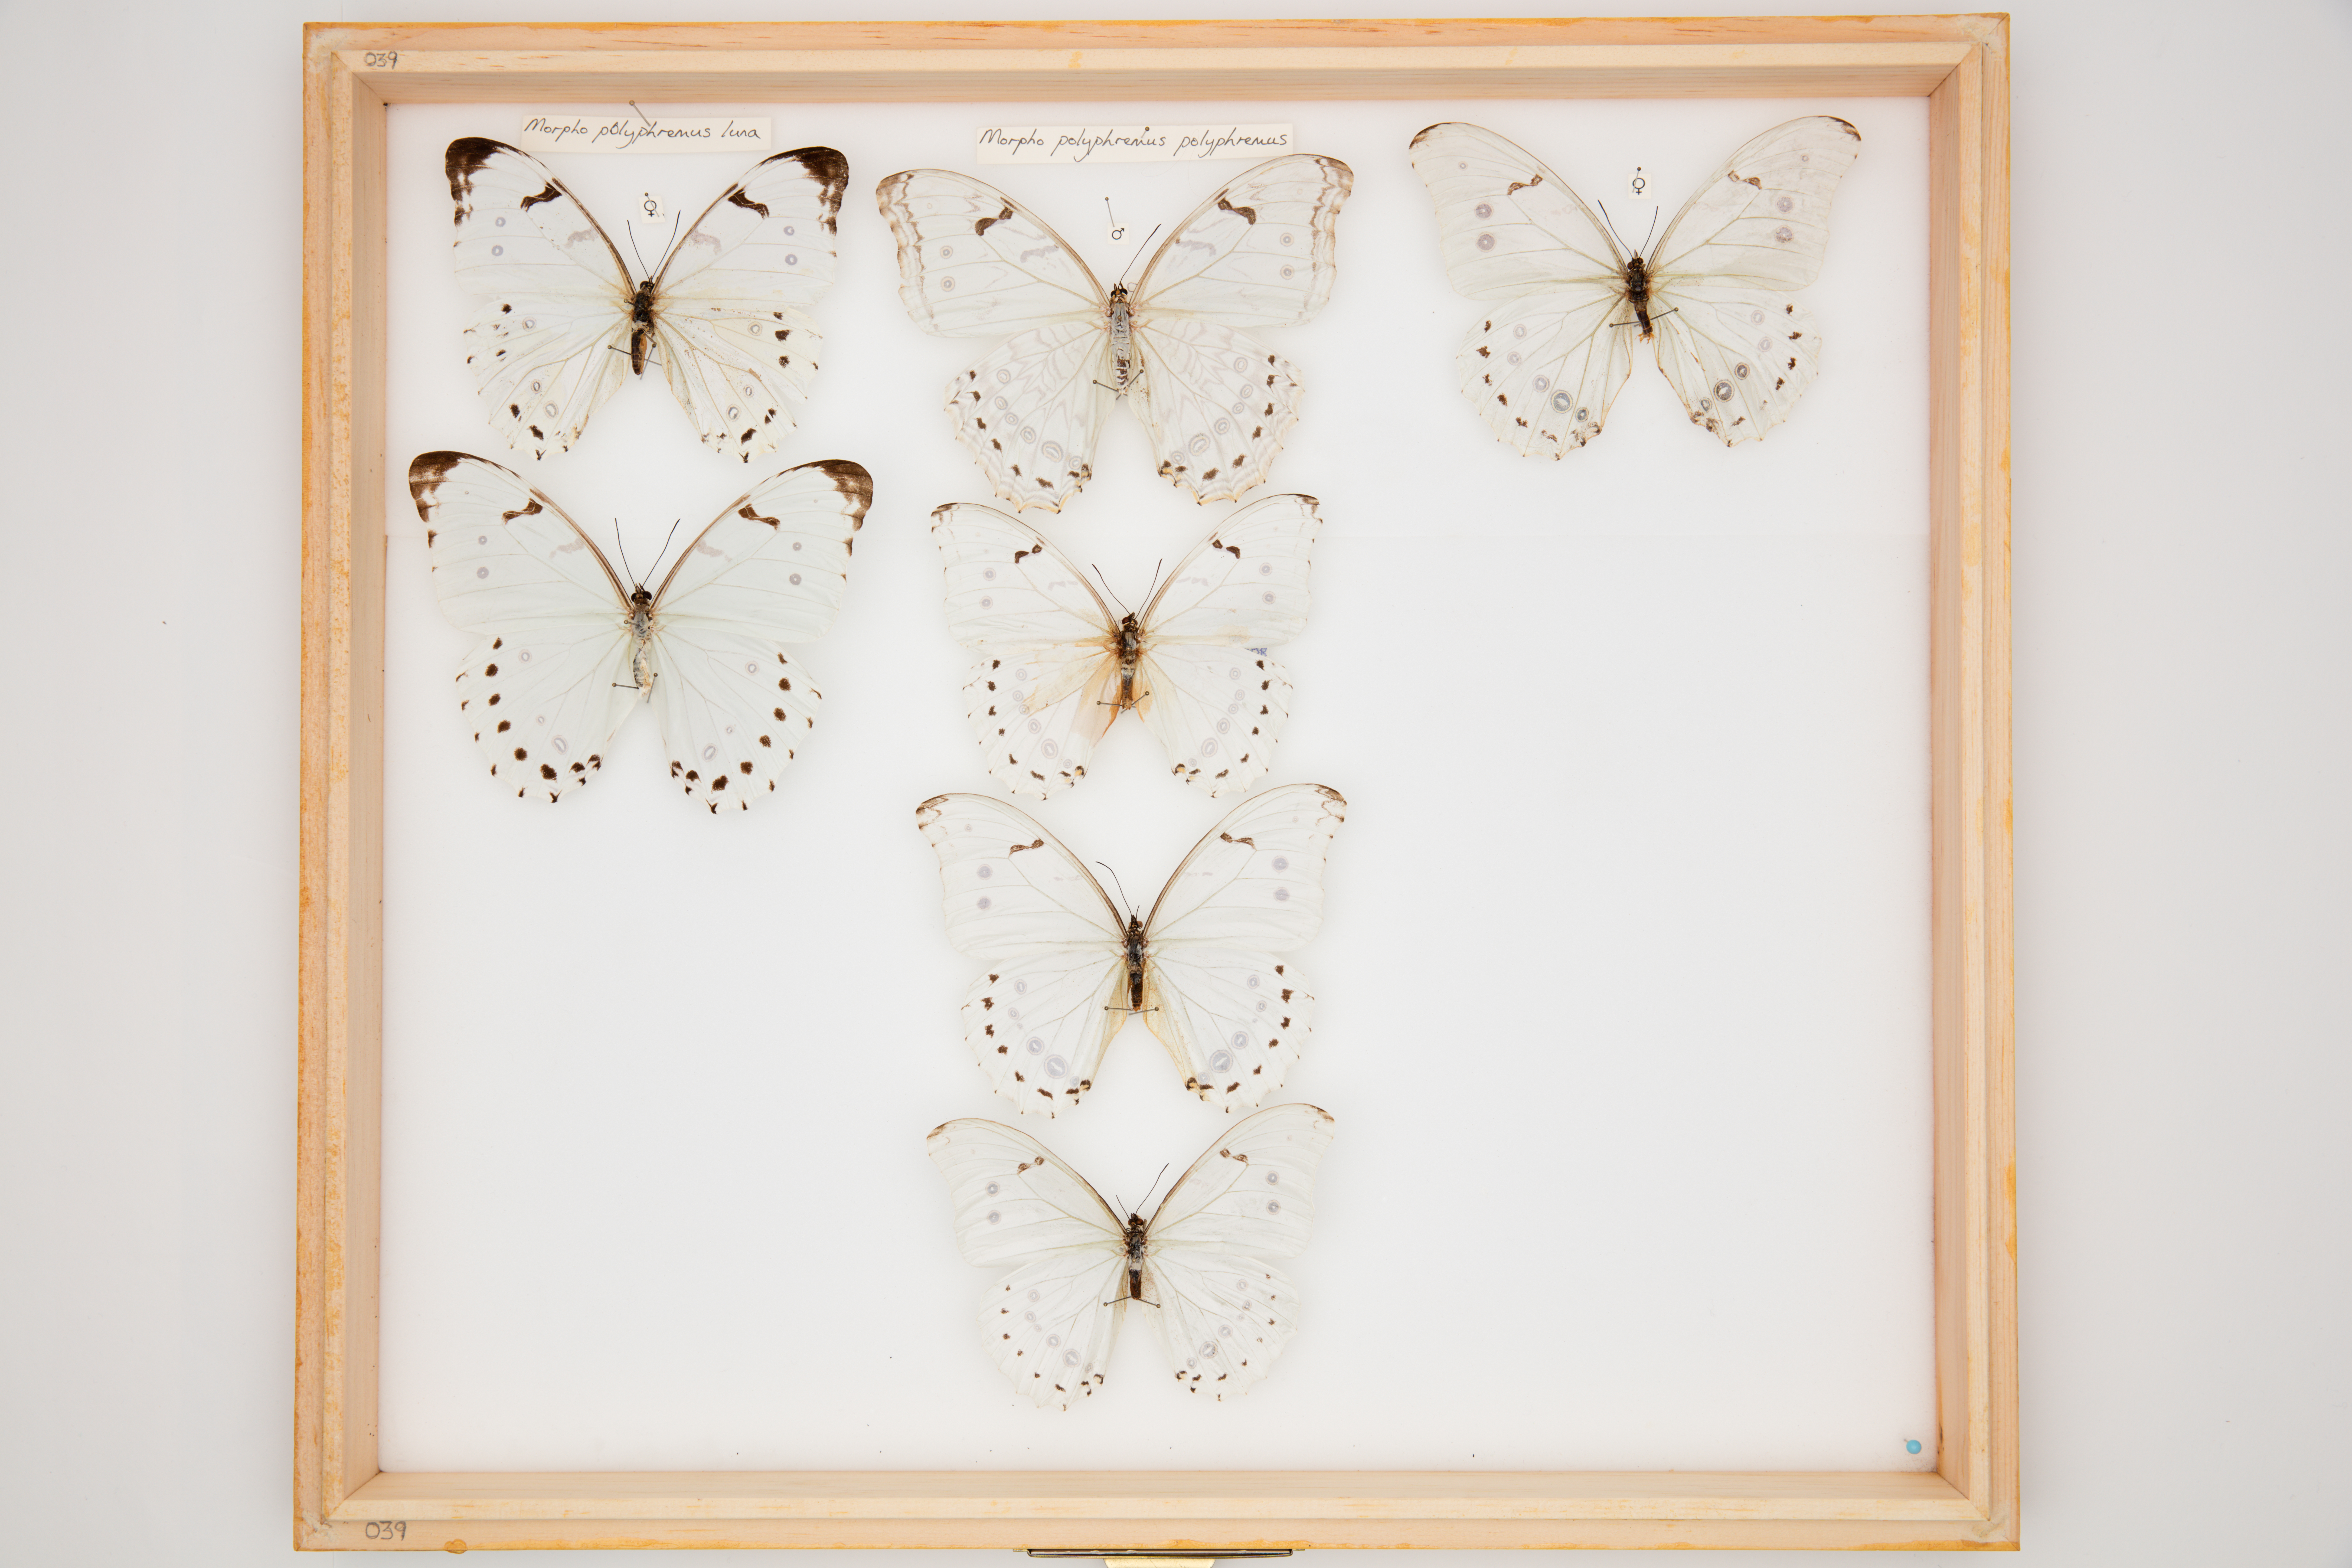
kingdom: Animalia
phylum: Arthropoda
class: Insecta
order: Lepidoptera
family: Nymphalidae
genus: Morpho
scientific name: Morpho polyphemus
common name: White morpho
